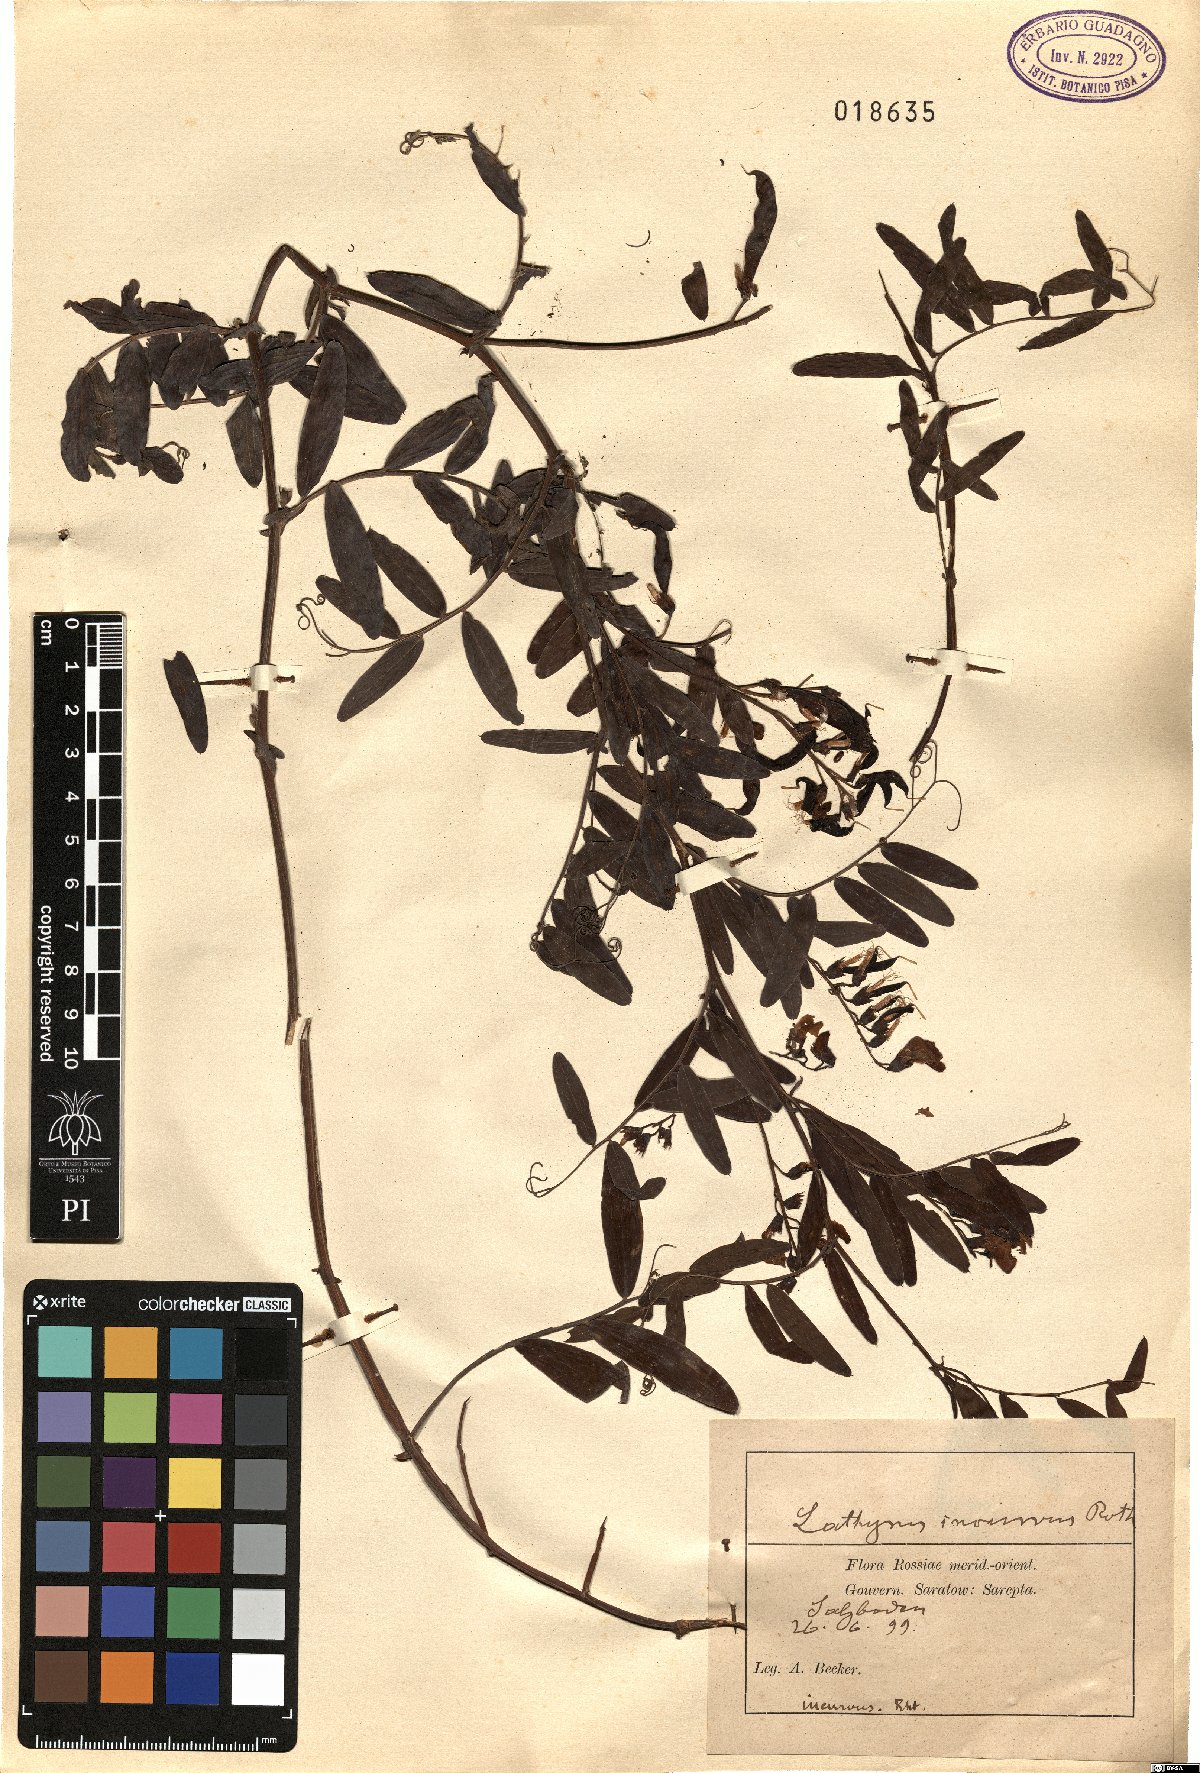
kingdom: Plantae
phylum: Tracheophyta
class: Magnoliopsida
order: Fabales
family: Fabaceae
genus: Lathyrus
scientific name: Lathyrus incurvus
